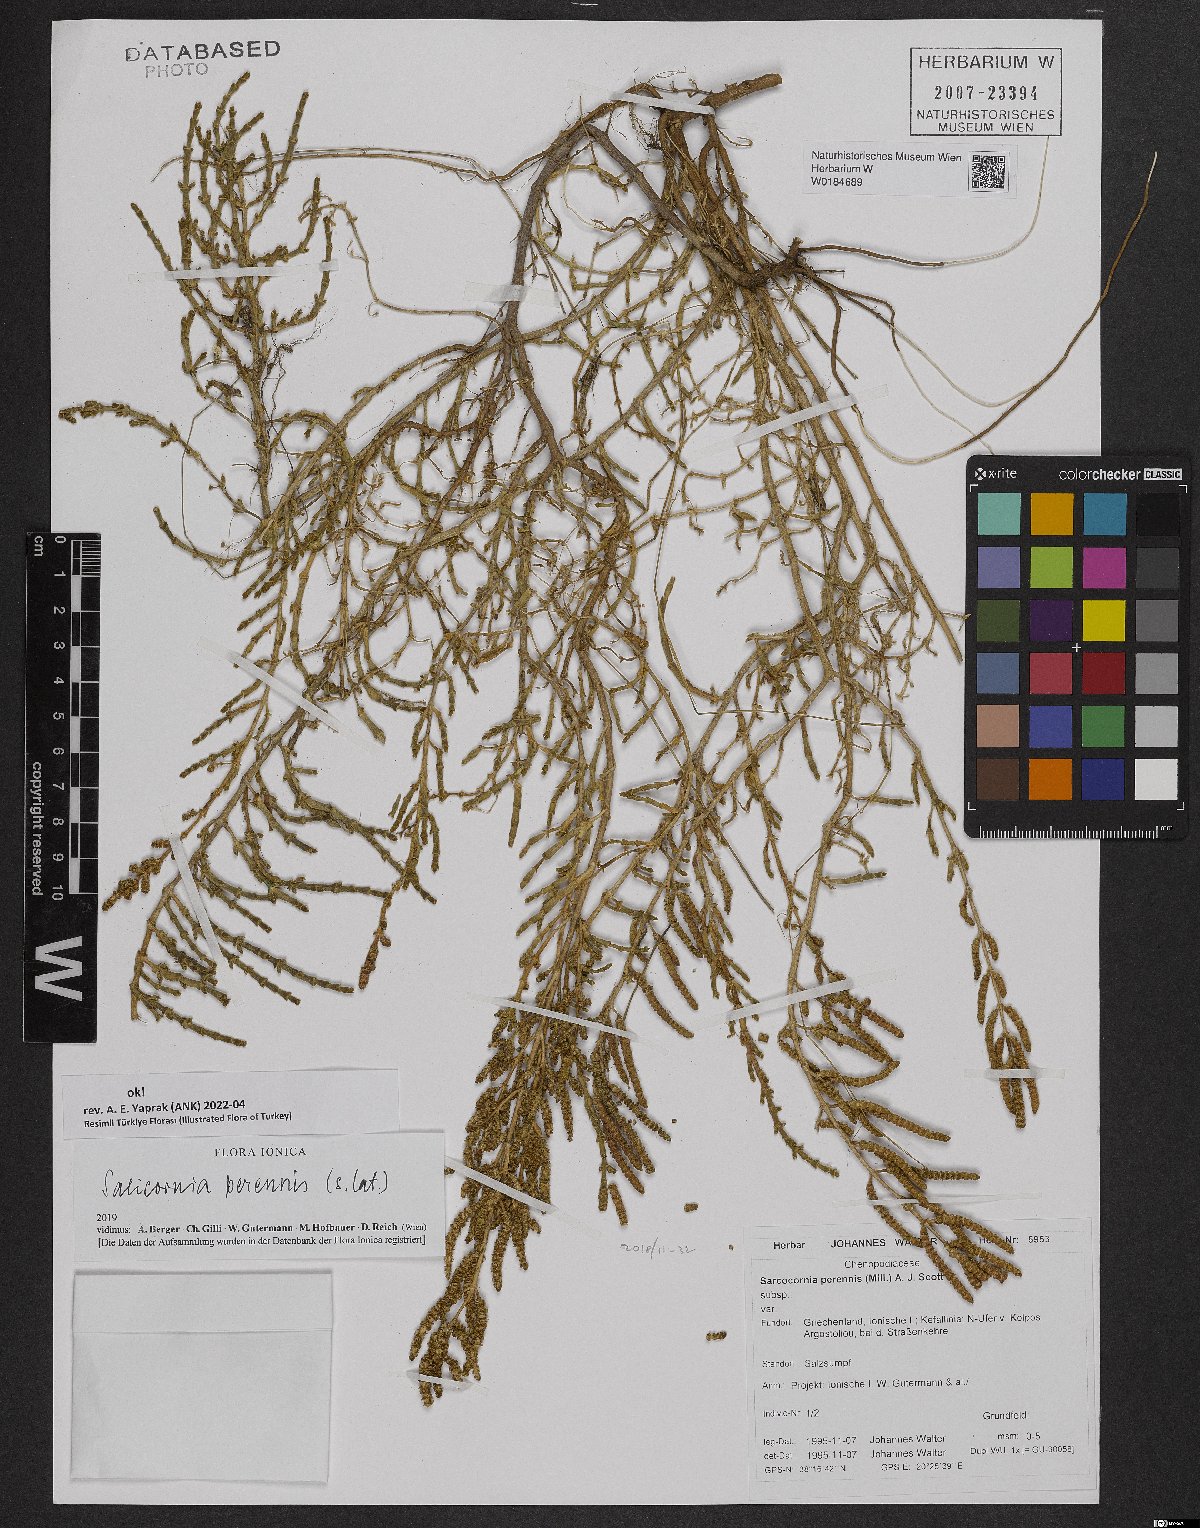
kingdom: Plantae
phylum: Tracheophyta
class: Magnoliopsida
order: Caryophyllales
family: Amaranthaceae
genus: Salicornia
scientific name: Salicornia perennis
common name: Chicken claws
